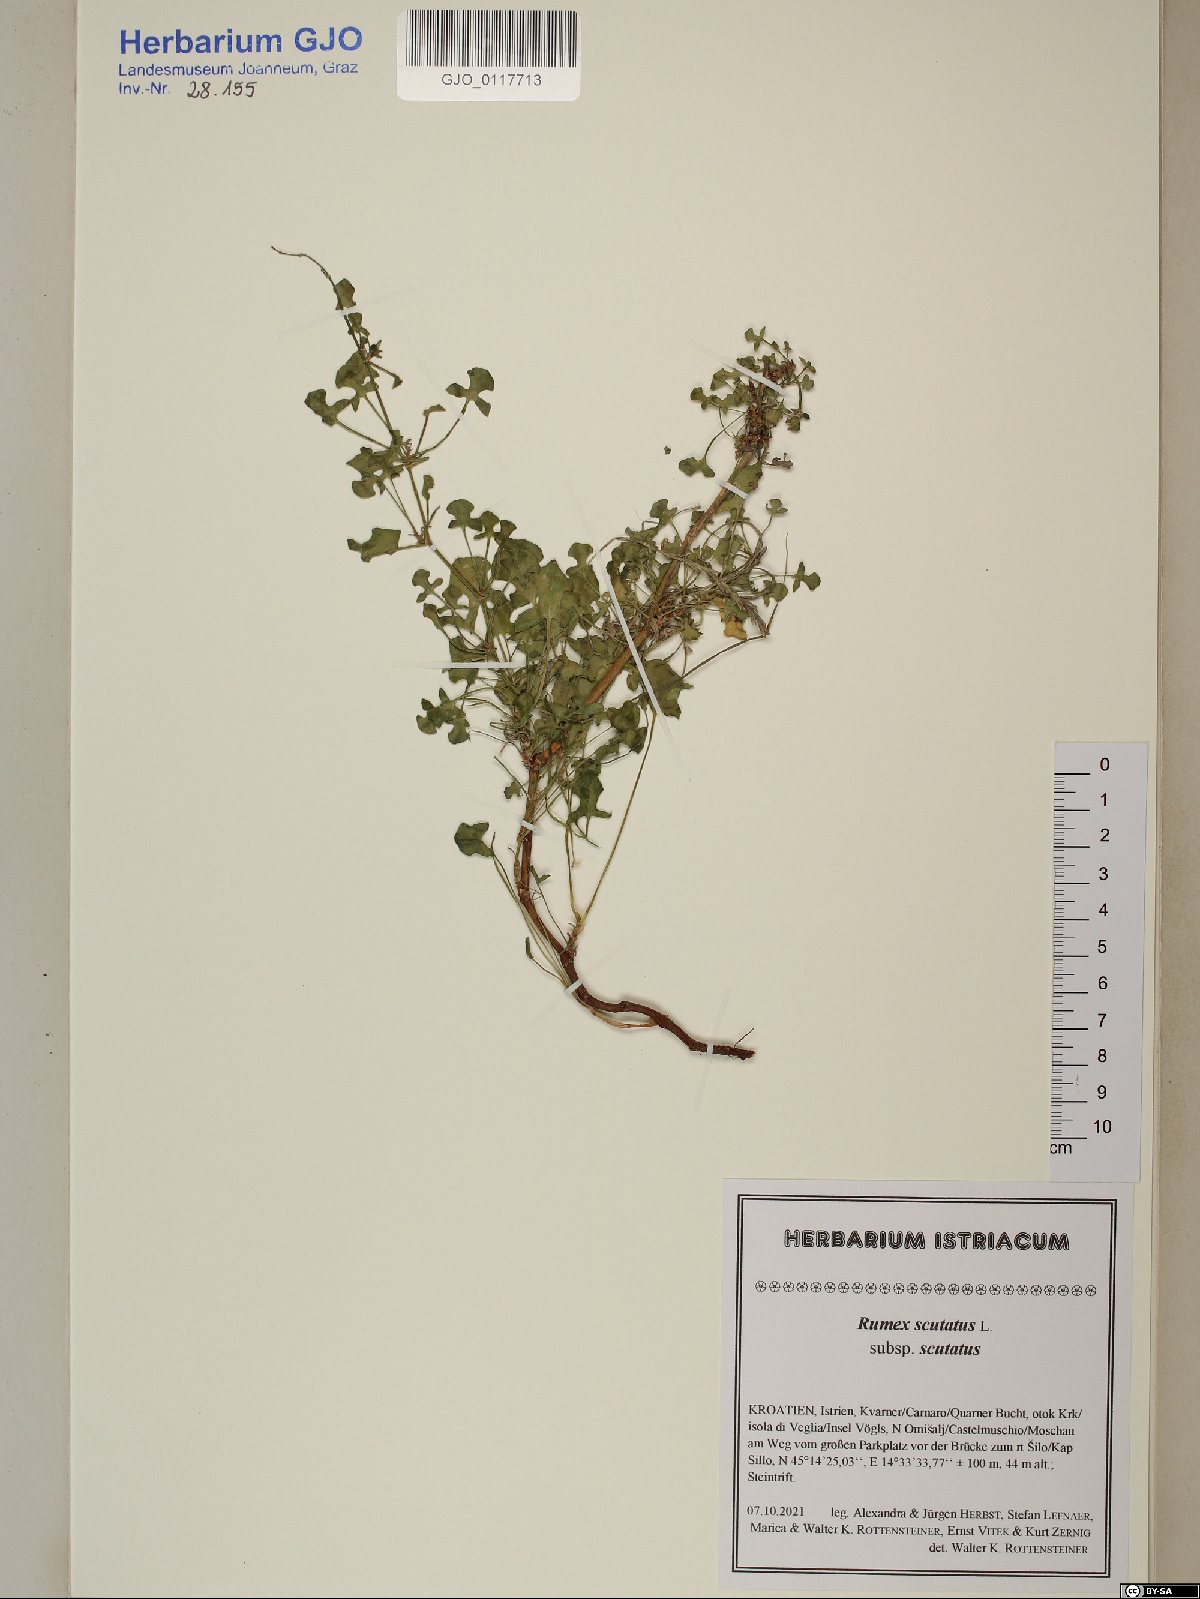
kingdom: Plantae
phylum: Tracheophyta
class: Magnoliopsida
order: Caryophyllales
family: Polygonaceae
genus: Rumex
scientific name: Rumex scutatus
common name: French sorrel
